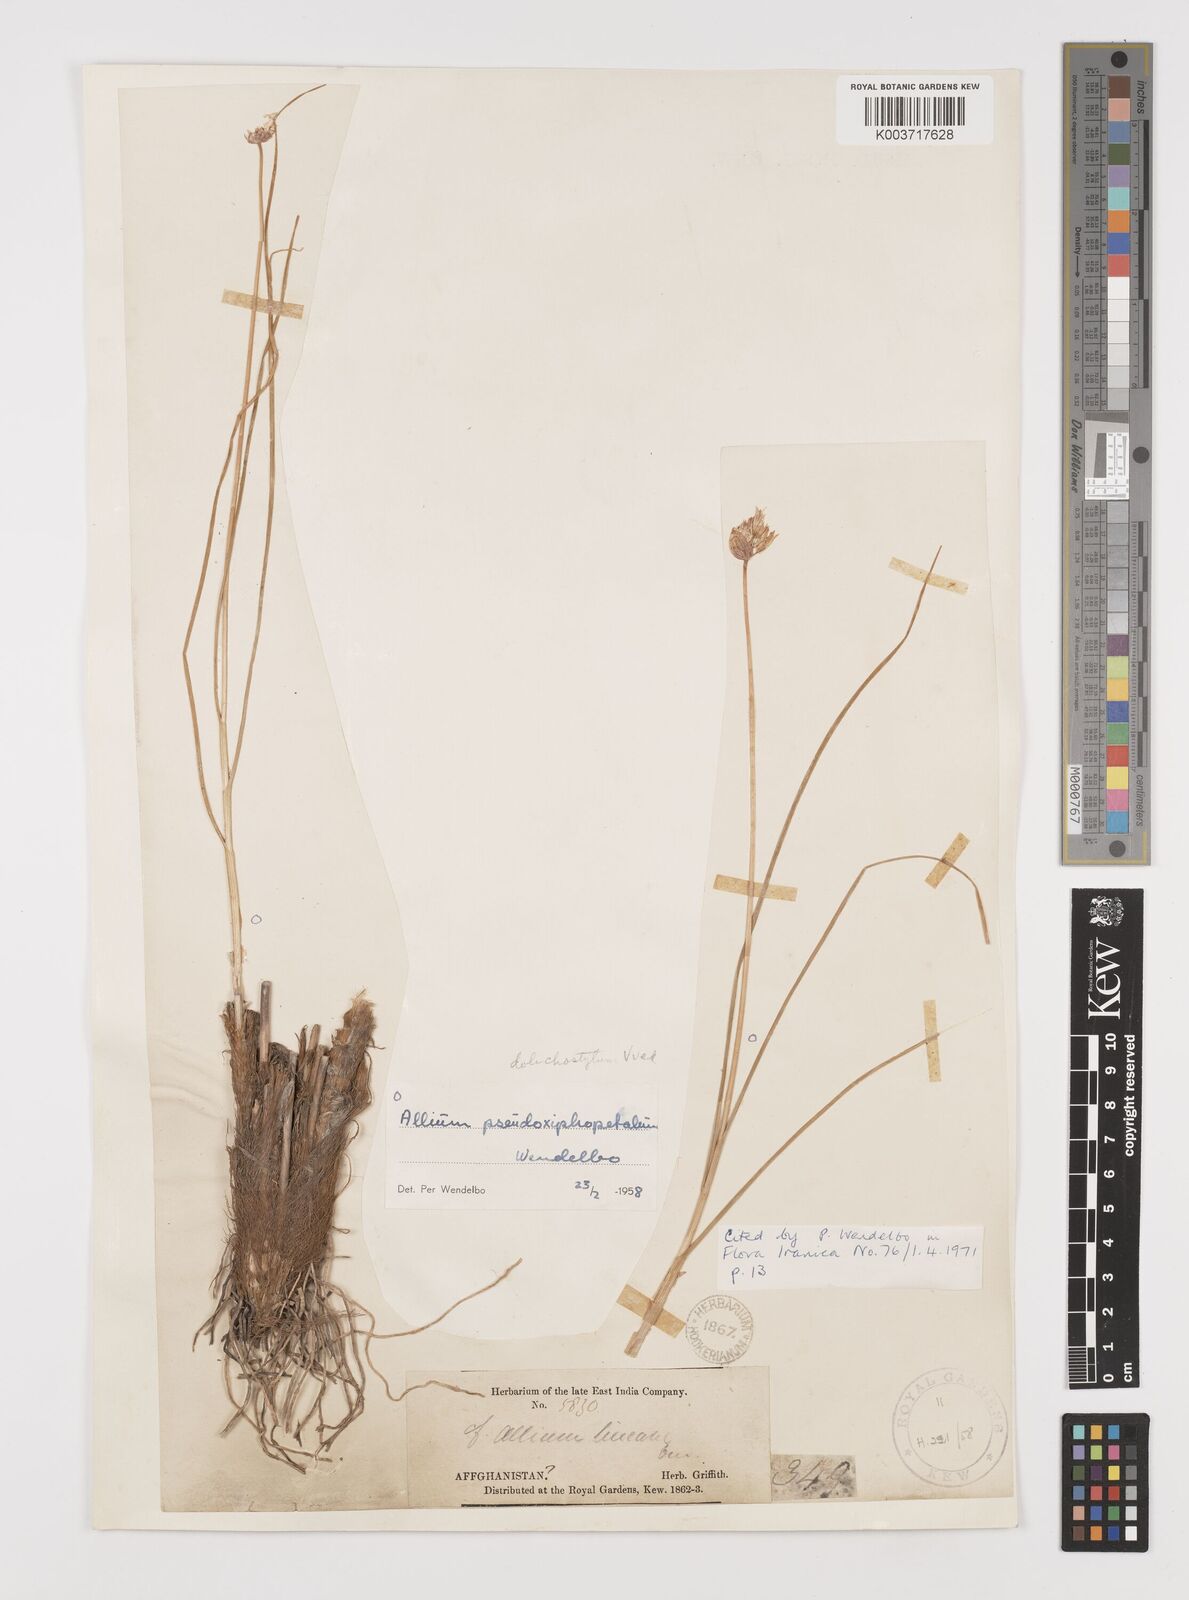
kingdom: Plantae
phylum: Tracheophyta
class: Liliopsida
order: Asparagales
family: Amaryllidaceae
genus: Allium
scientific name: Allium dolichostylum
